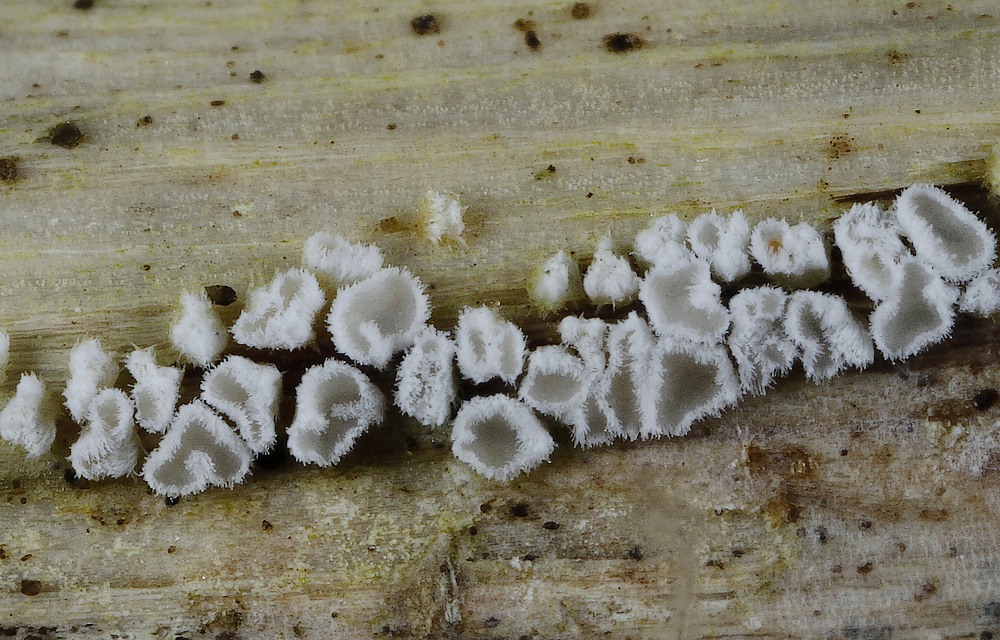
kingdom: Fungi
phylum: Basidiomycota
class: Agaricomycetes
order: Agaricales
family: Niaceae
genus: Lachnella
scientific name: Lachnella alboviolascens
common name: grå frynserede
